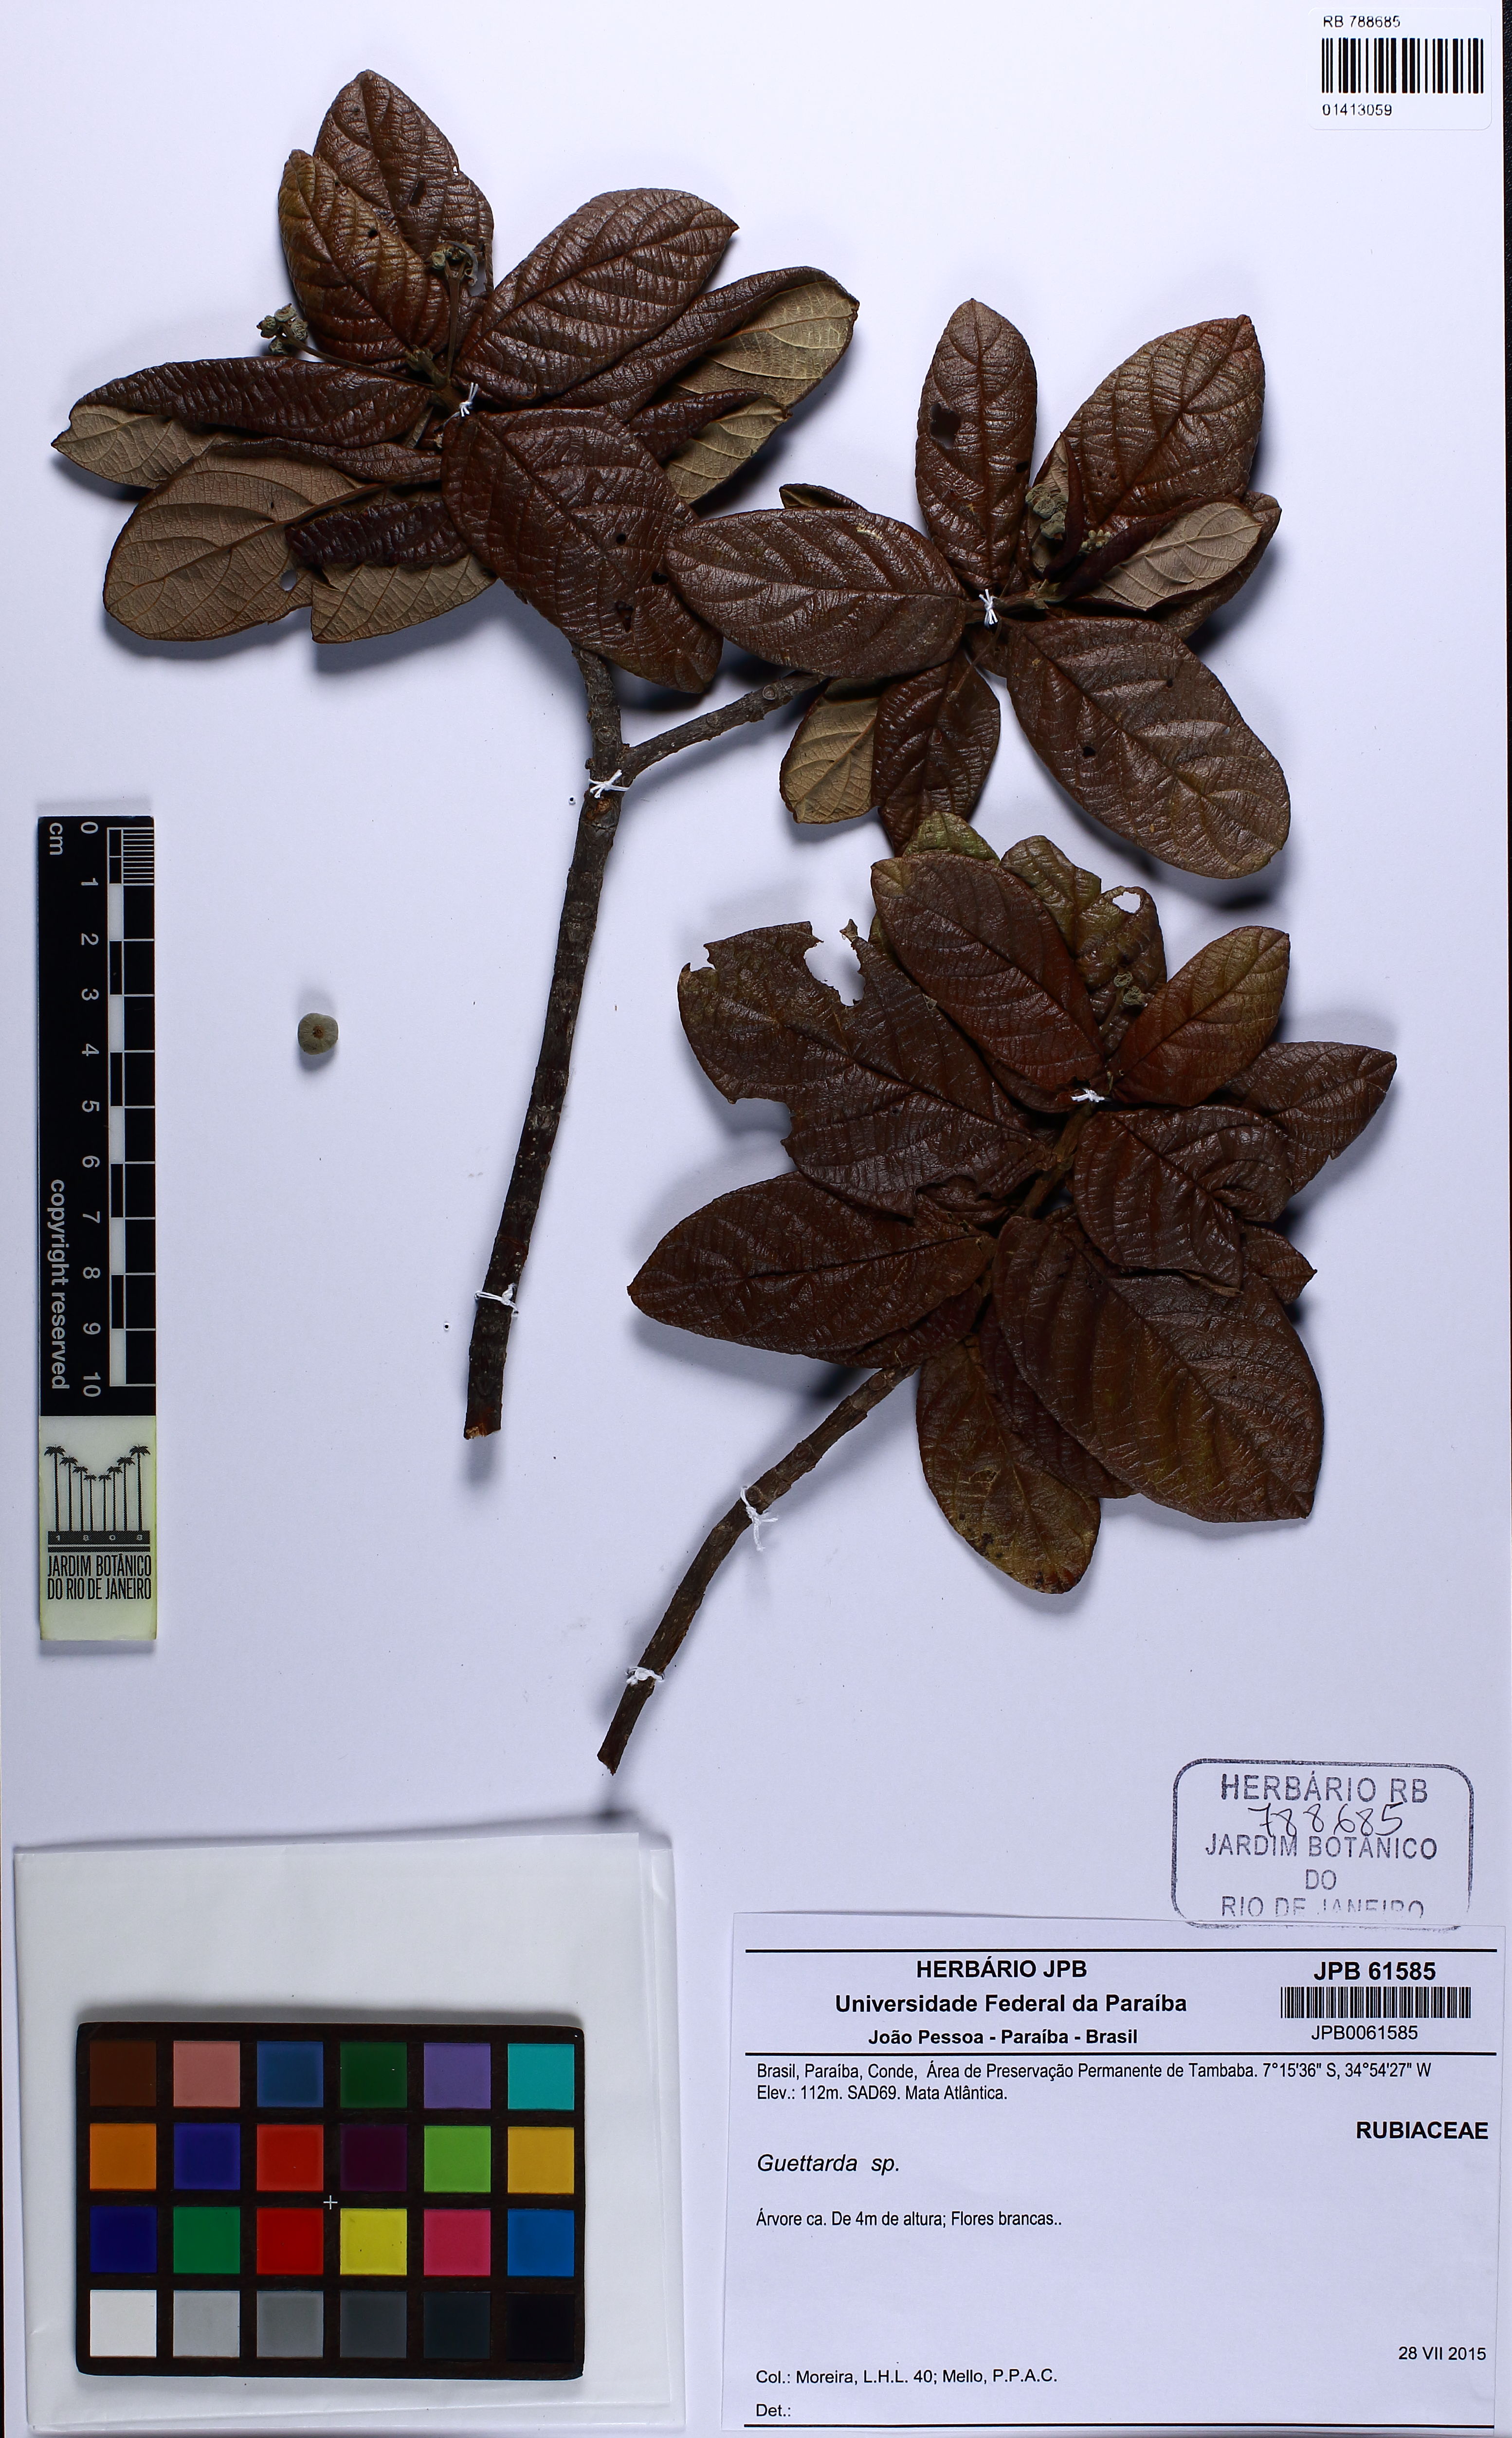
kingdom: Plantae
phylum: Tracheophyta
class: Magnoliopsida
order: Gentianales
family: Rubiaceae
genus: Guettarda
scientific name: Guettarda
